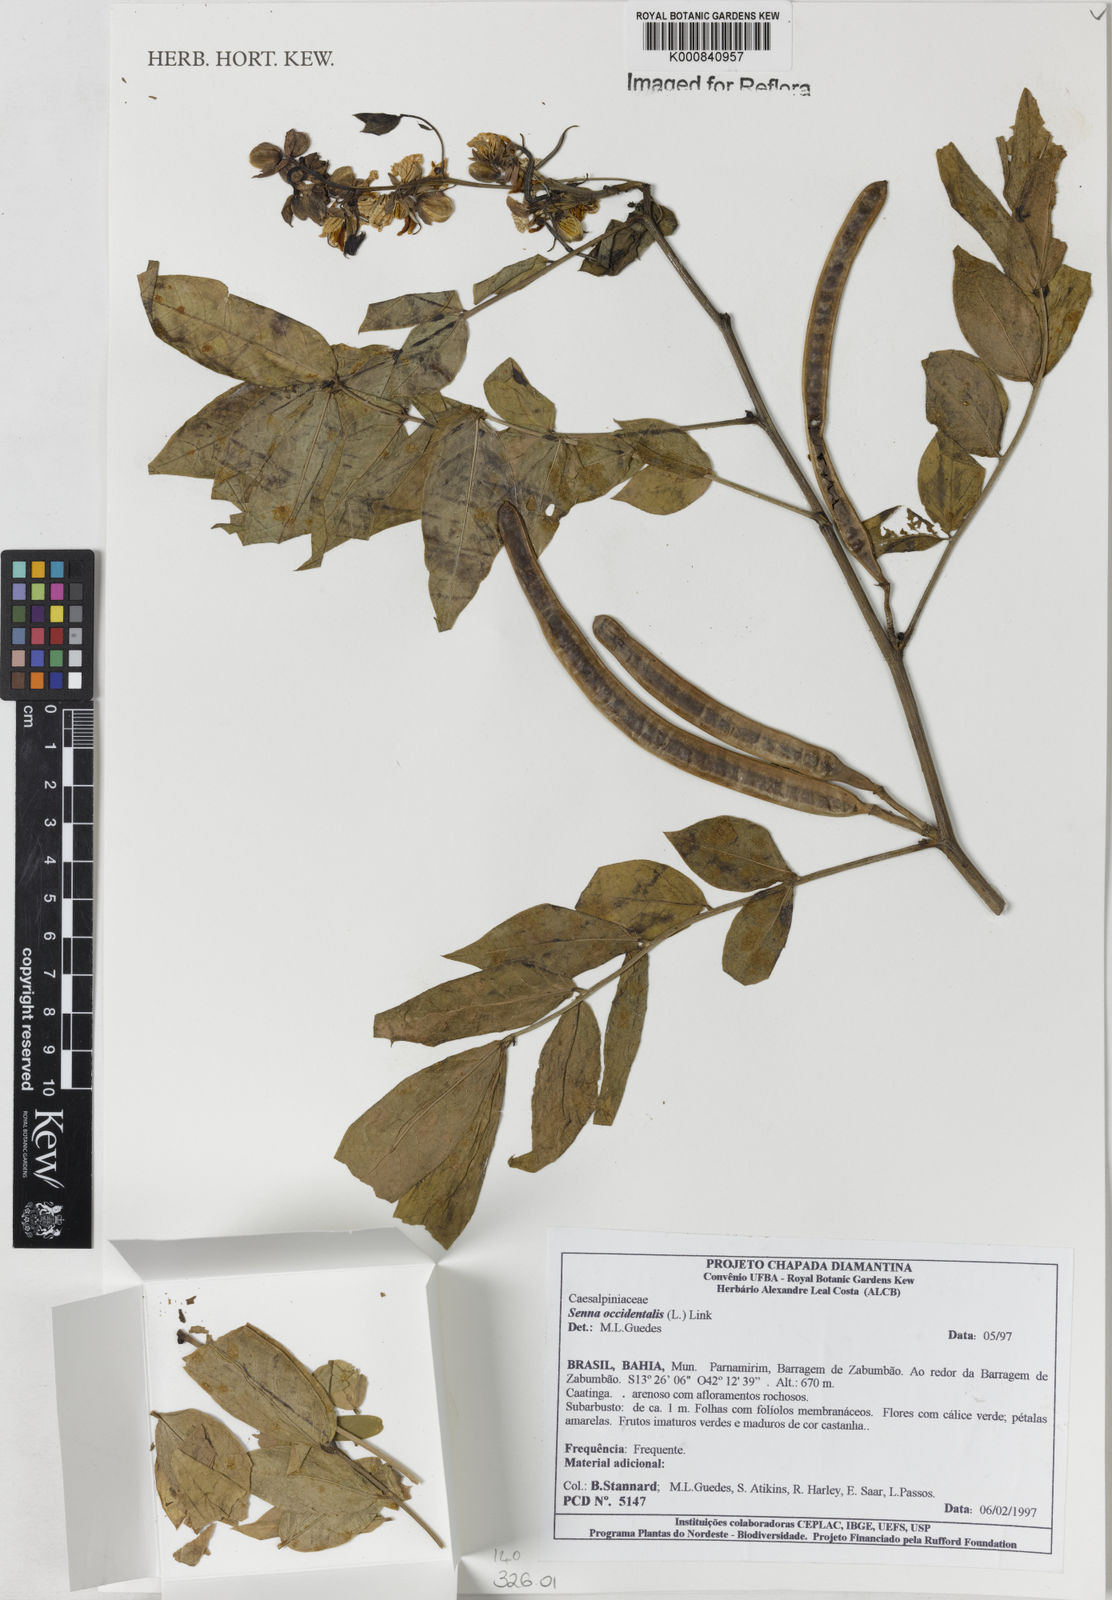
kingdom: Plantae
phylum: Tracheophyta
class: Magnoliopsida
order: Fabales
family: Fabaceae
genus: Senna
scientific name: Senna occidentalis
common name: Septicweed
